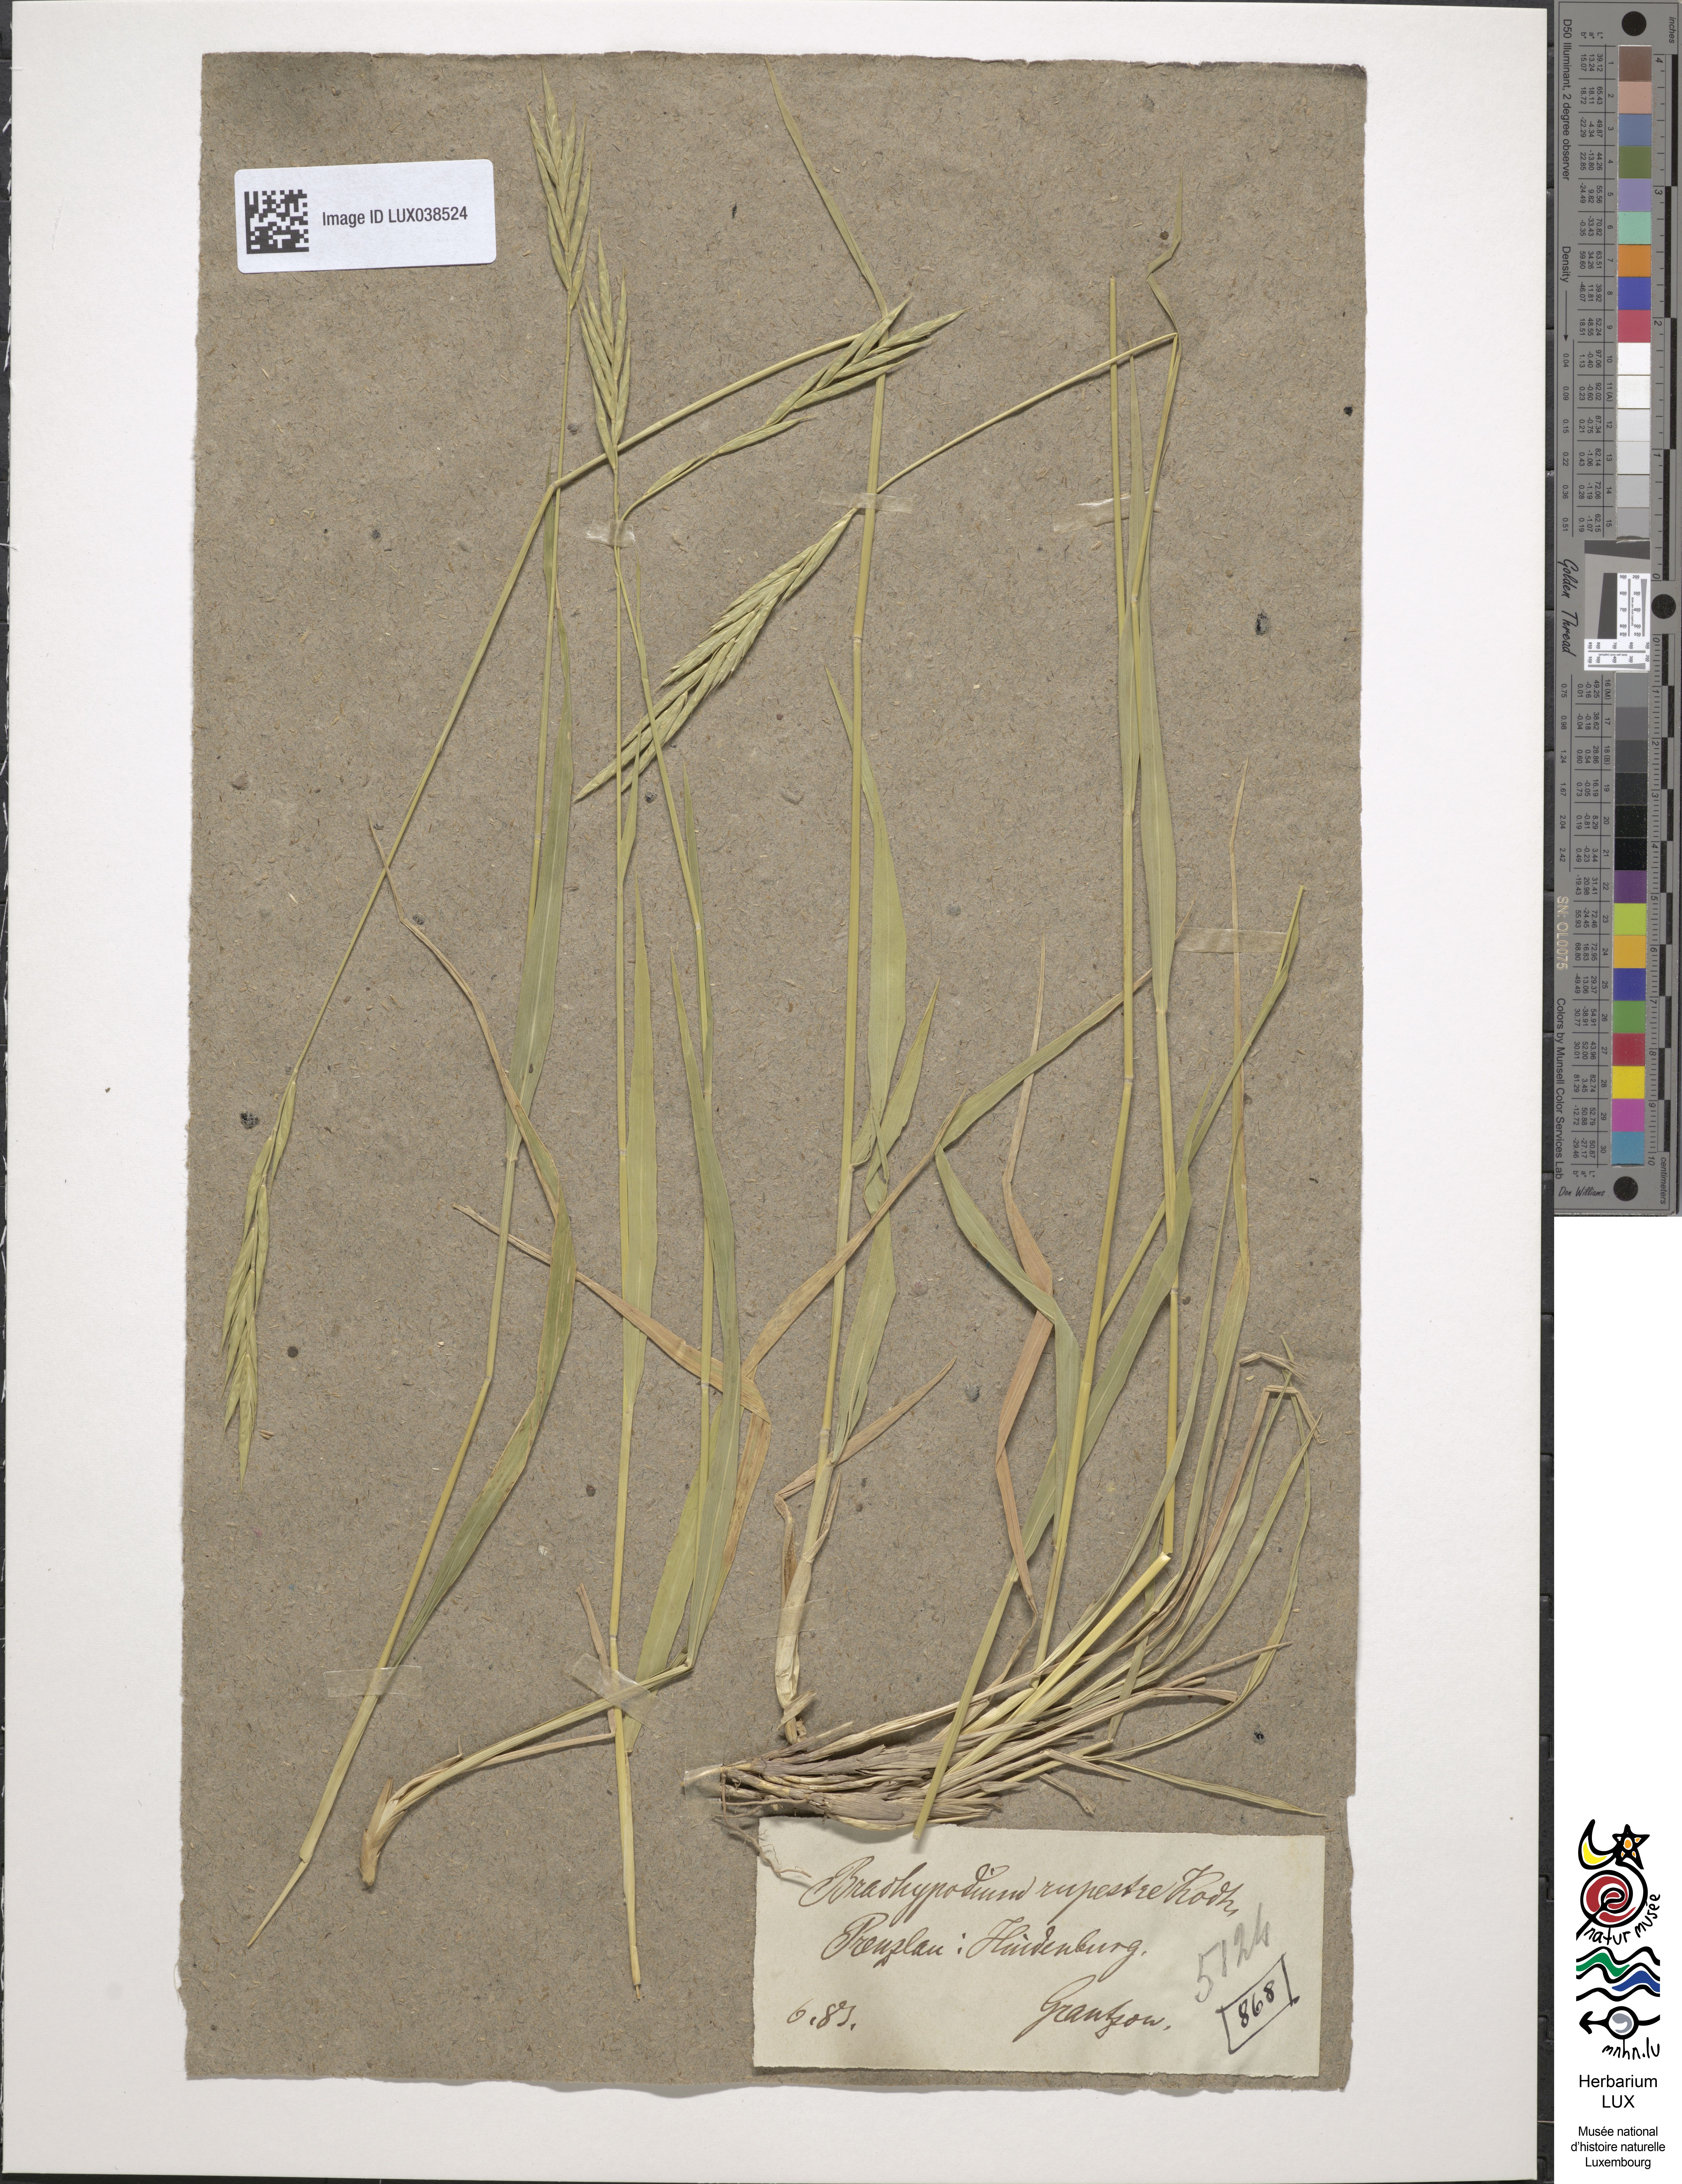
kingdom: Plantae
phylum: Tracheophyta
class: Liliopsida
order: Poales
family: Poaceae
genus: Brachypodium
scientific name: Brachypodium pinnatum
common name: Tor grass
